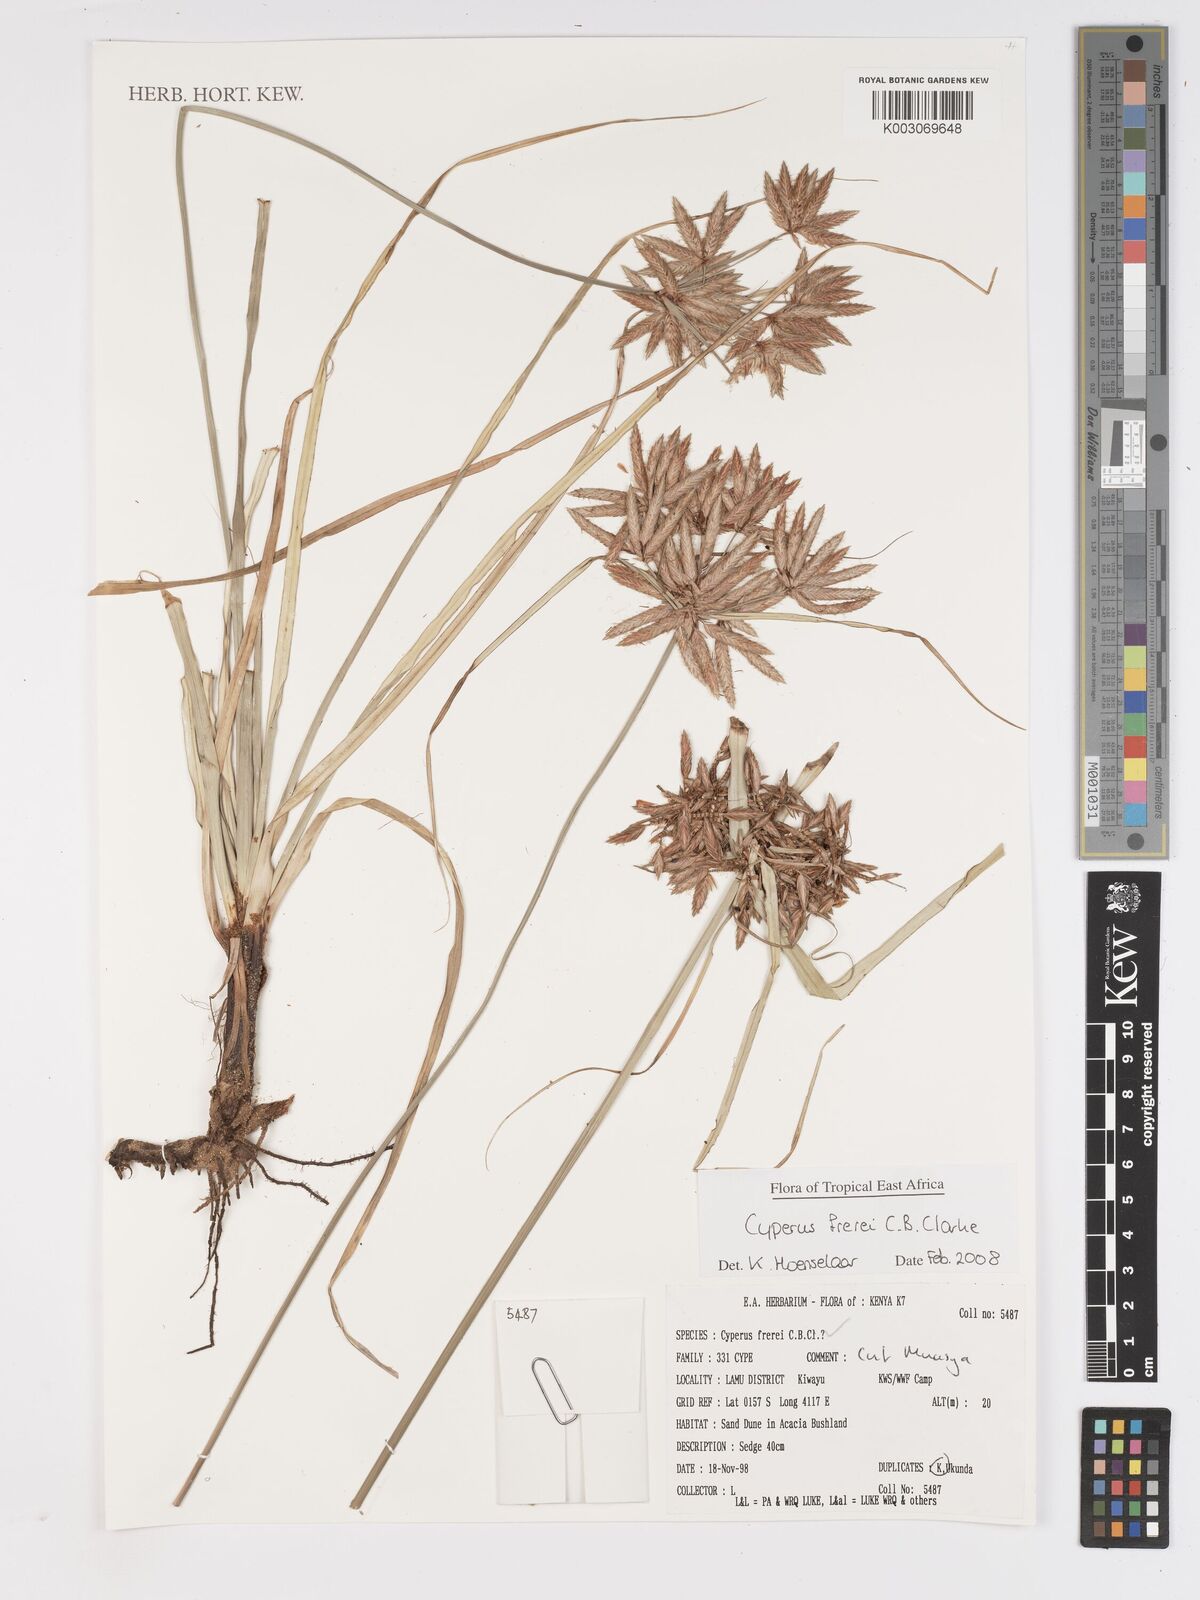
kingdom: Plantae
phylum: Tracheophyta
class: Liliopsida
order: Poales
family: Cyperaceae
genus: Cyperus
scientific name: Cyperus crassipes
